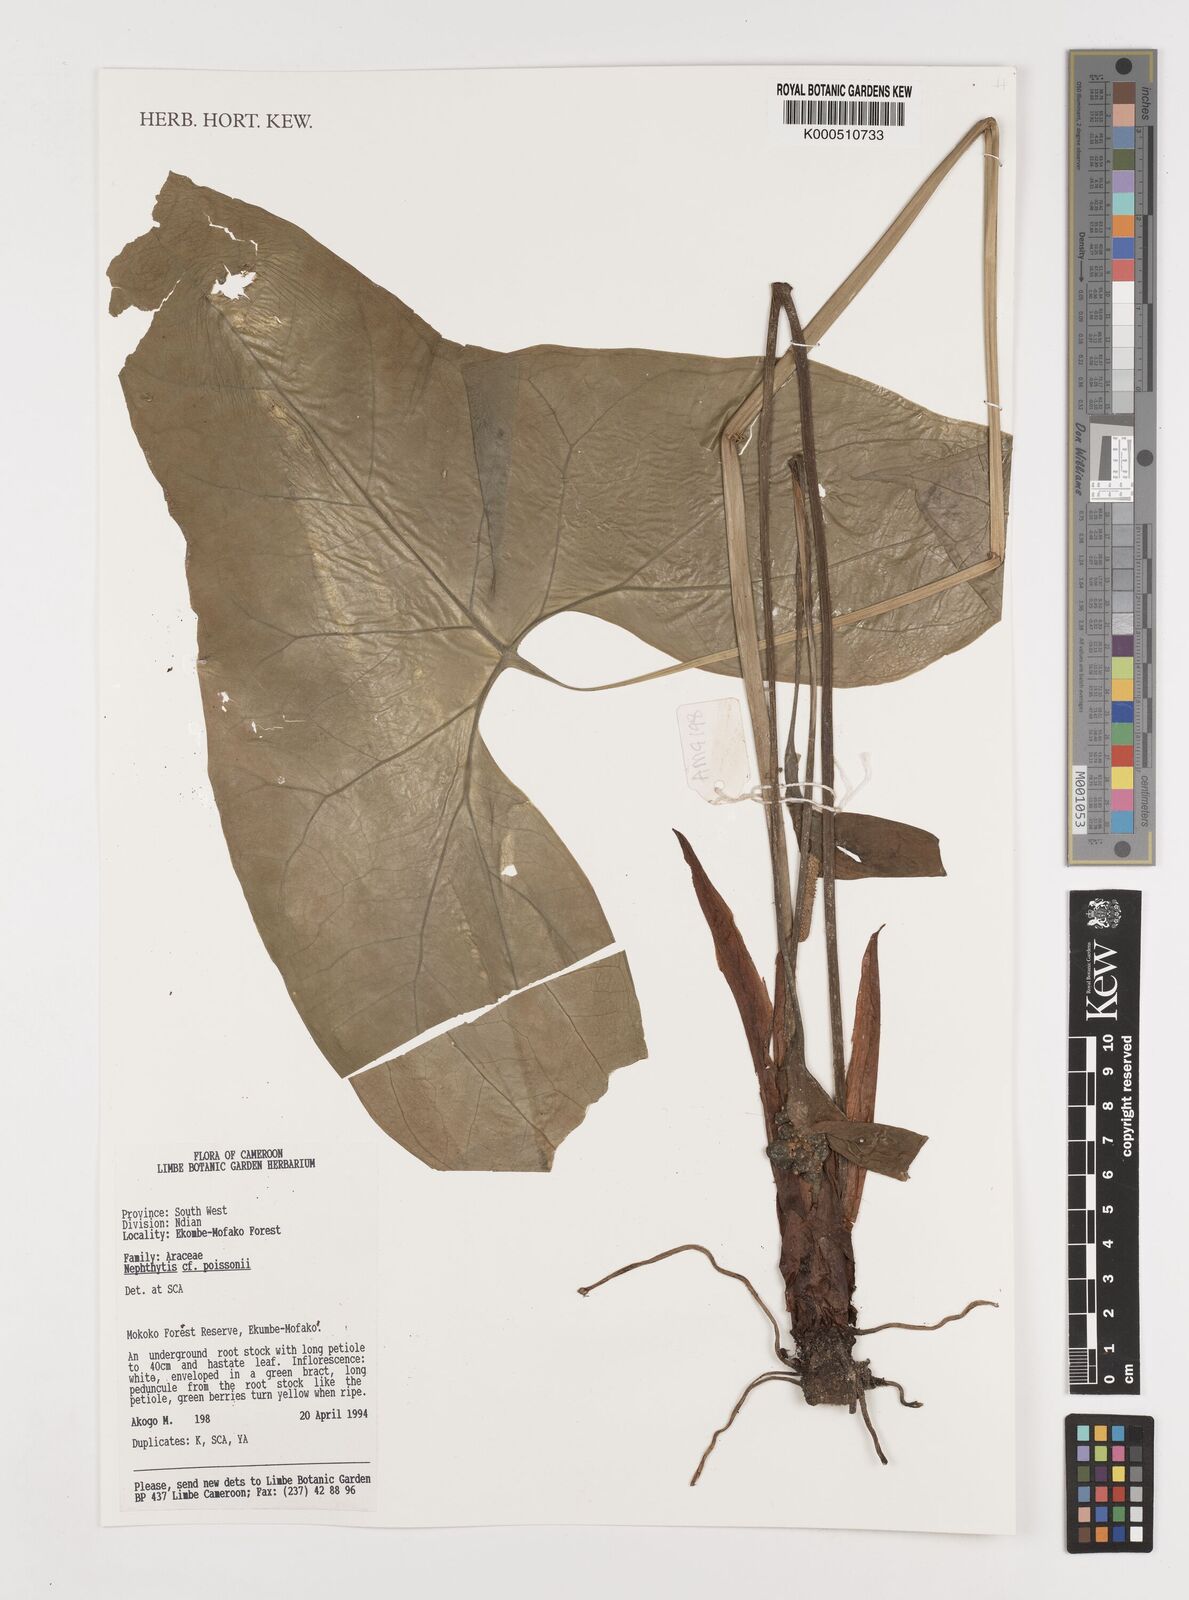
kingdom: Plantae
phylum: Tracheophyta
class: Liliopsida
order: Alismatales
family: Araceae
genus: Nephthytis
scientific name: Nephthytis poissonii
